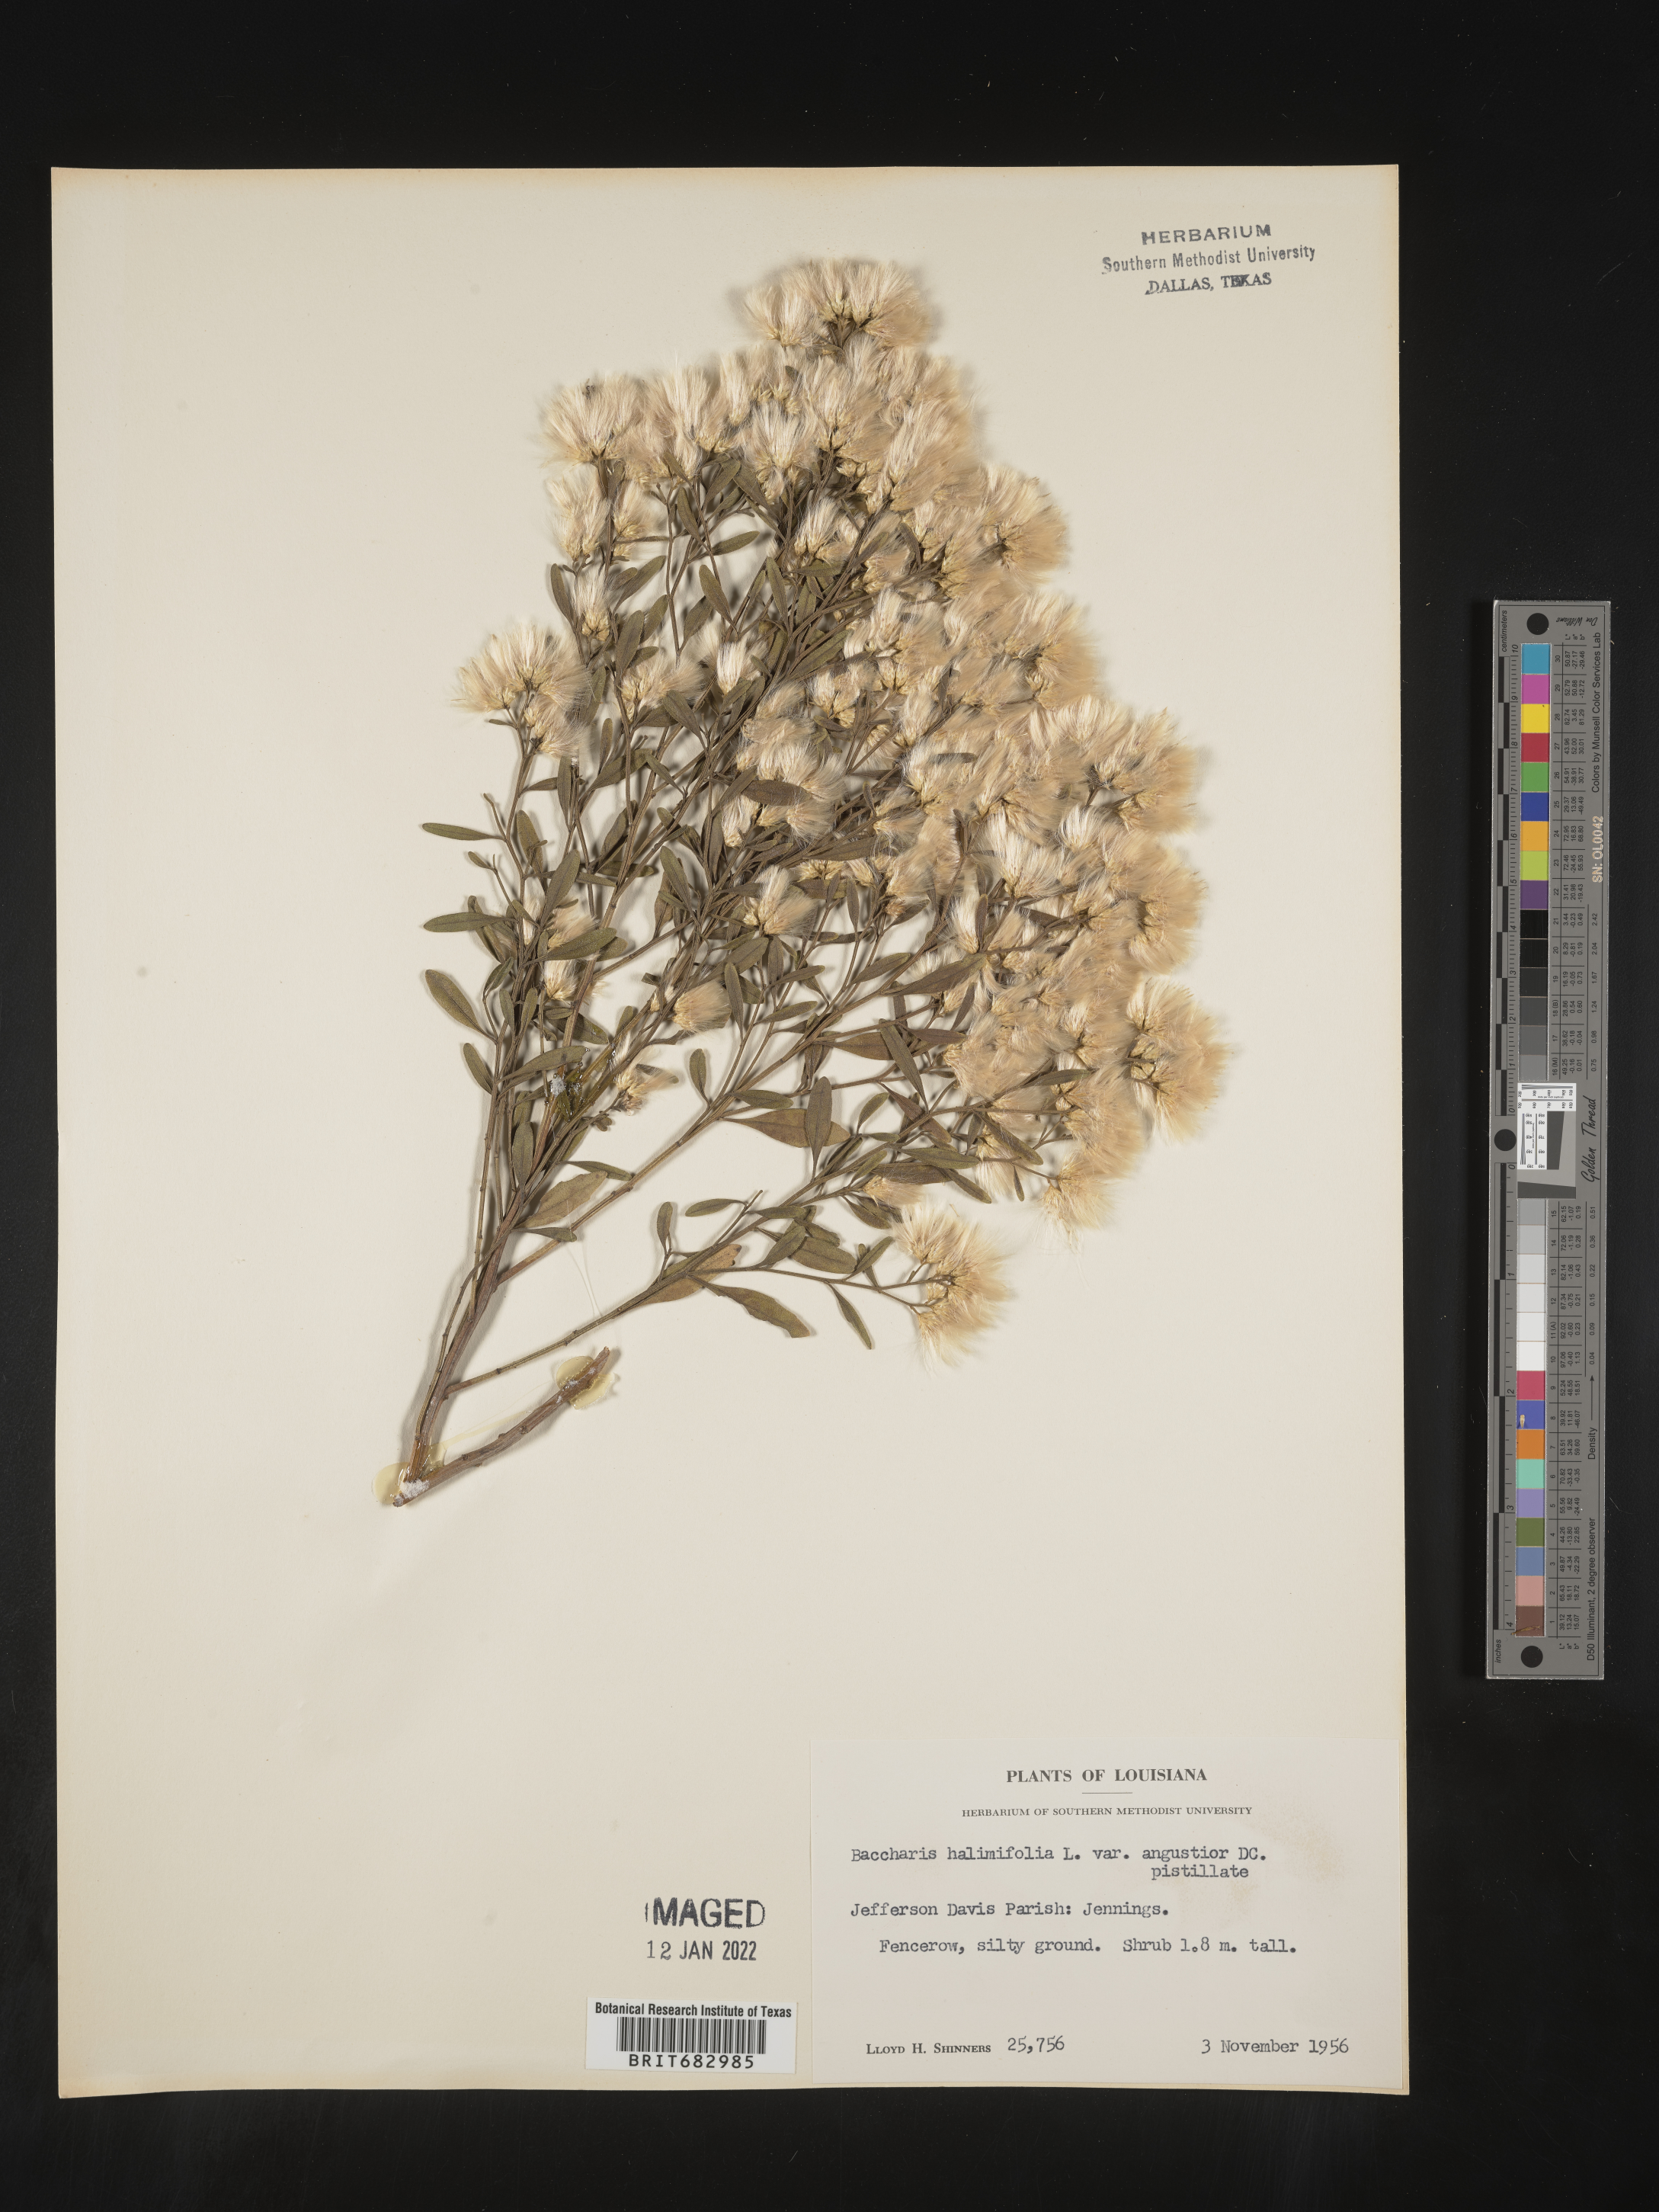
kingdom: Plantae
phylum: Tracheophyta
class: Magnoliopsida
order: Asterales
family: Asteraceae
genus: Nidorella
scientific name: Nidorella ivifolia
